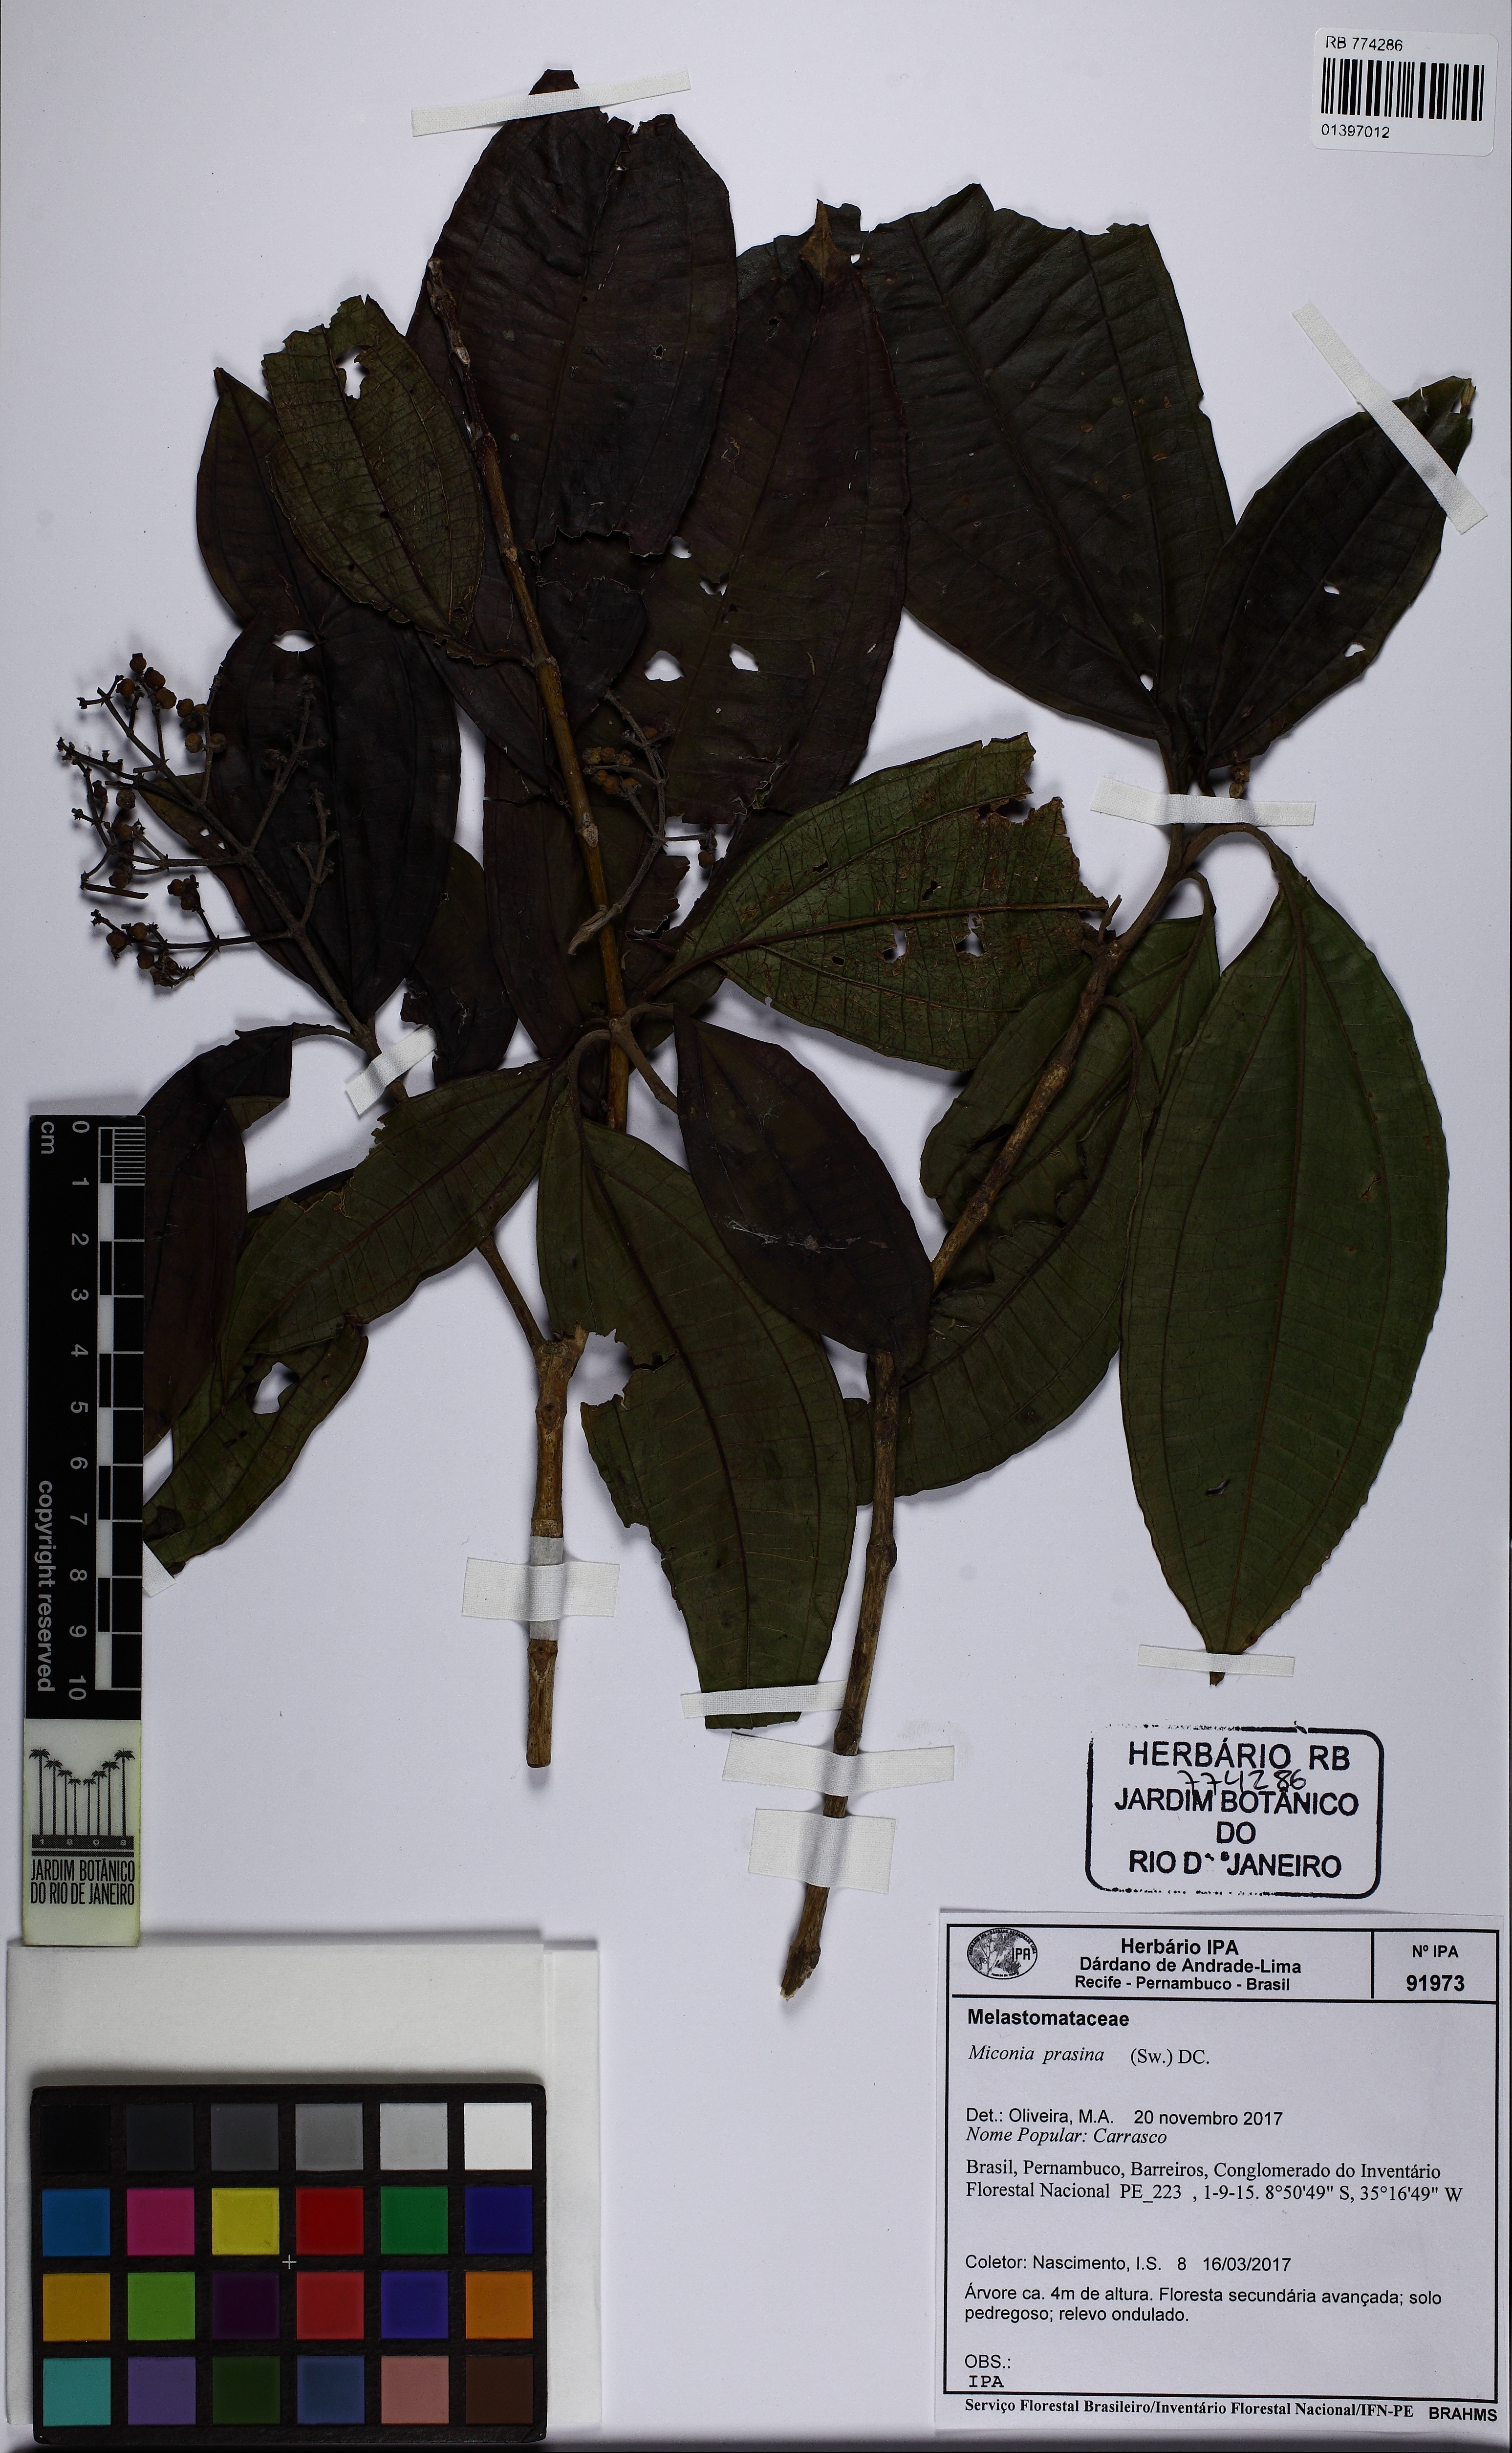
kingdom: Plantae
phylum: Tracheophyta
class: Magnoliopsida
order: Myrtales
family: Melastomataceae
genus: Miconia
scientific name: Miconia prasina
